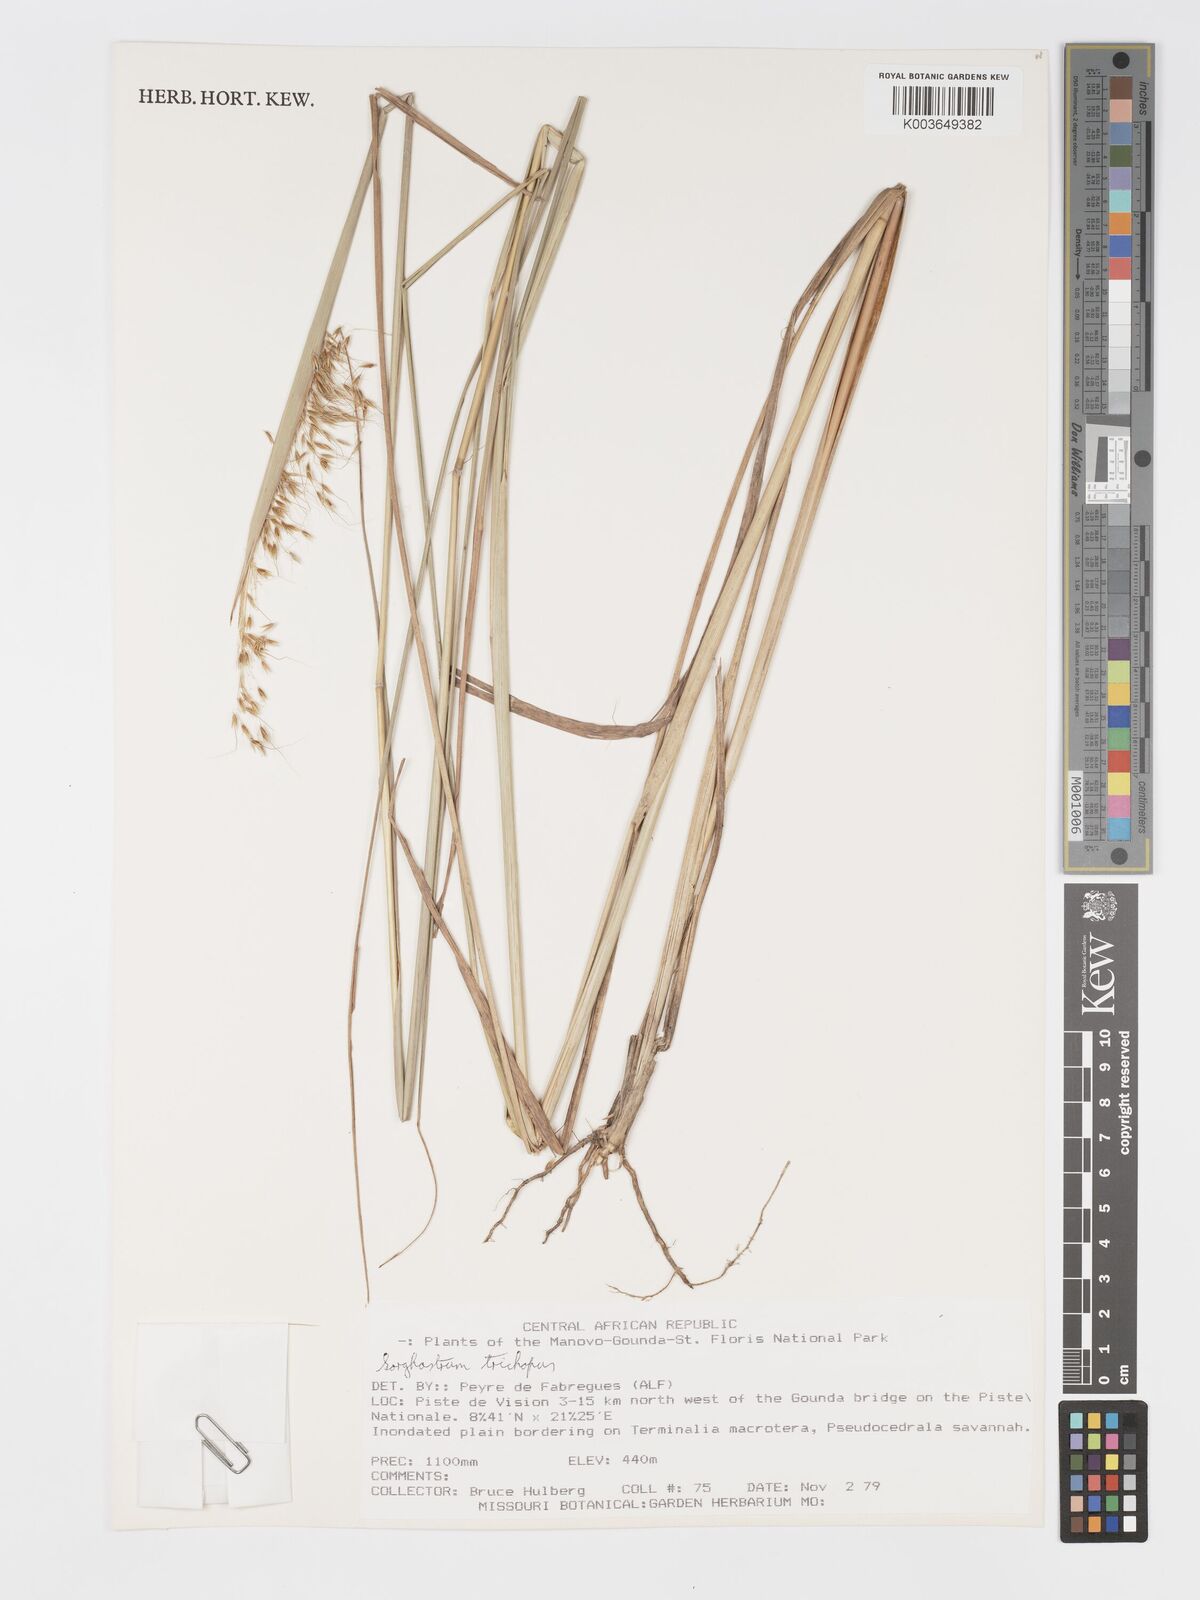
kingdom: Plantae
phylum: Tracheophyta
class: Liliopsida
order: Poales
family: Poaceae
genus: Sorghastrum
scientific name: Sorghastrum stipoides
